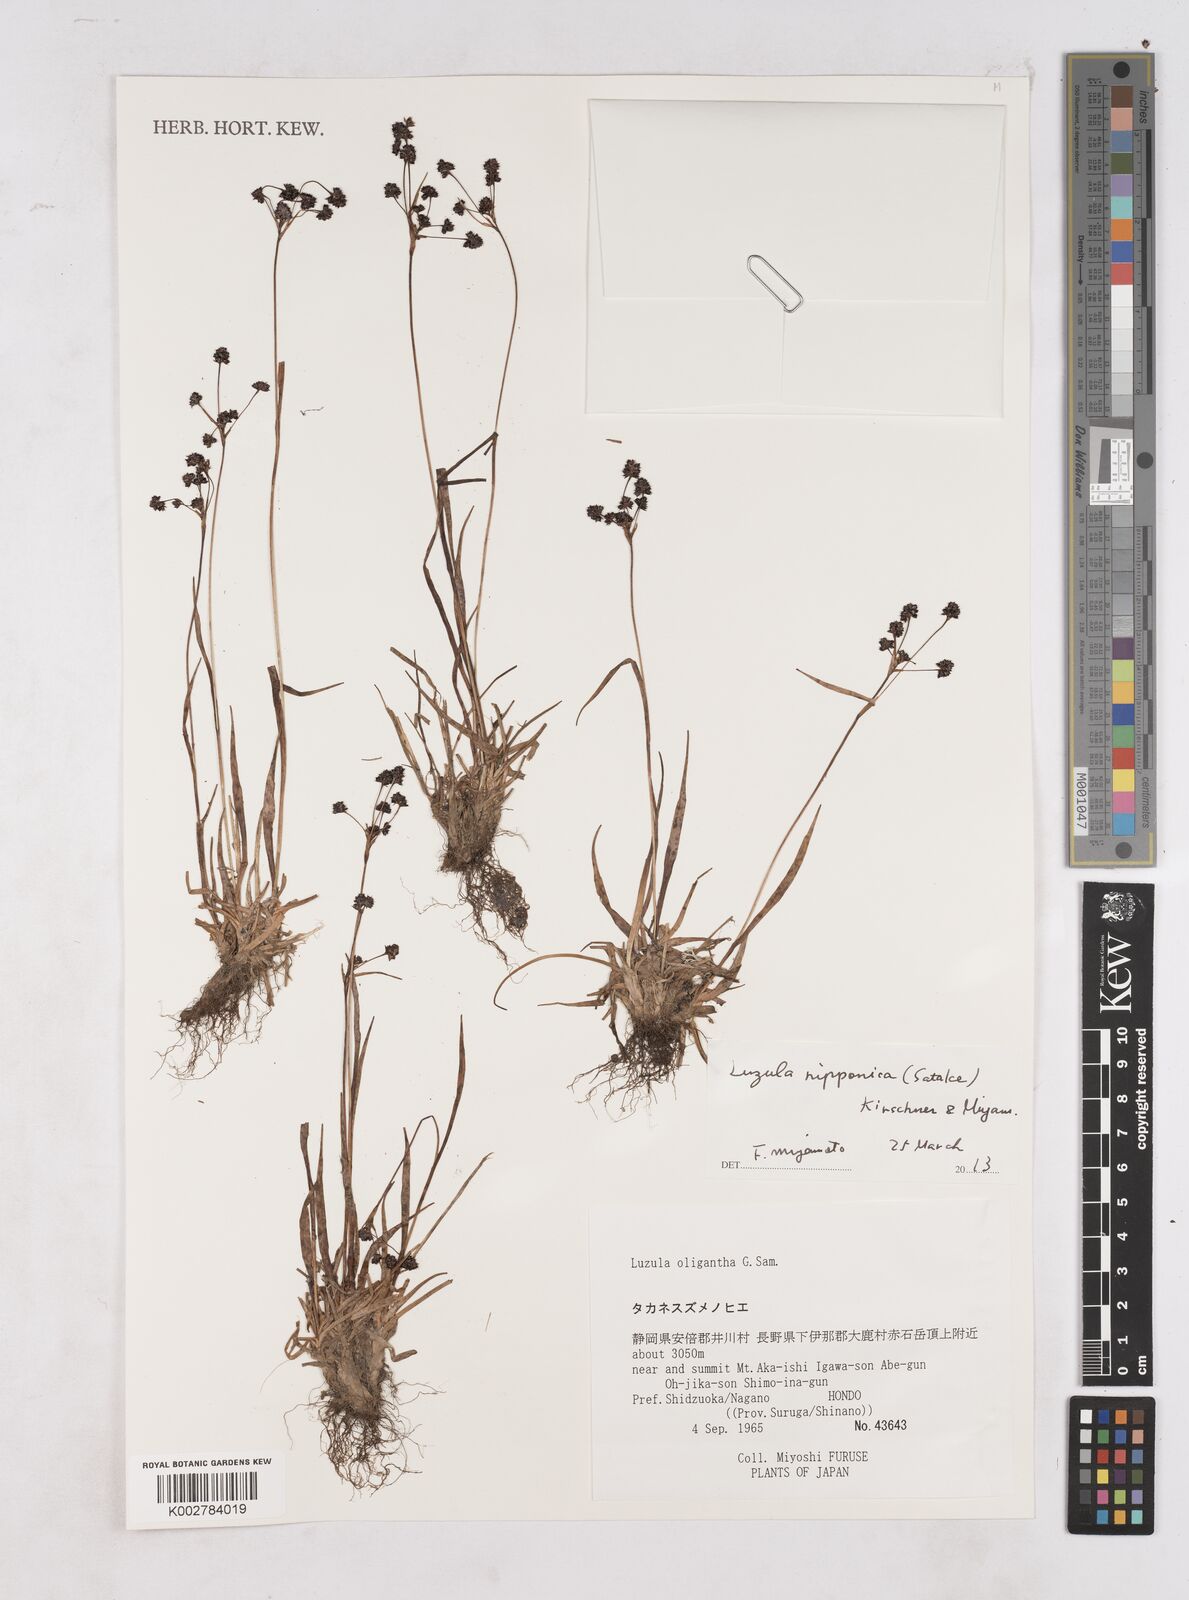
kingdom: Plantae
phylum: Tracheophyta
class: Liliopsida
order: Poales
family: Juncaceae
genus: Luzula
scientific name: Luzula oligantha
